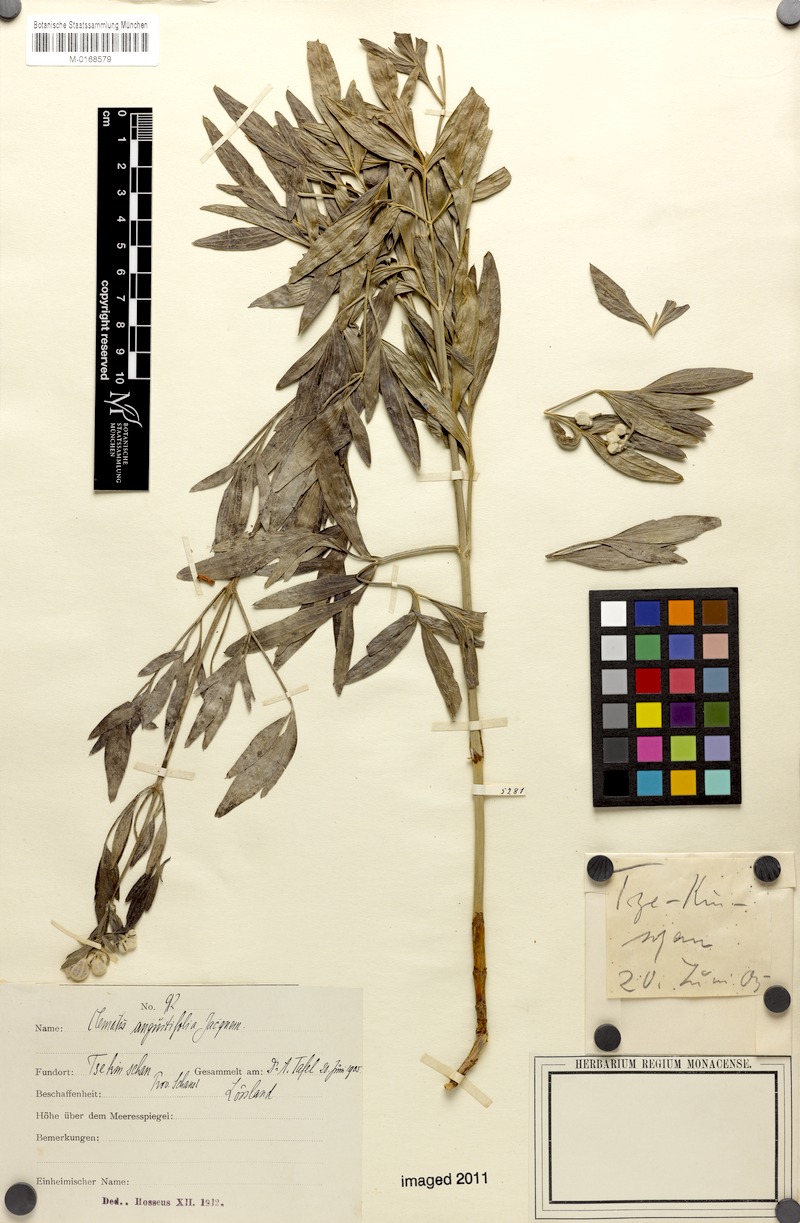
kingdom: Plantae
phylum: Tracheophyta
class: Magnoliopsida
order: Ranunculales
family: Ranunculaceae
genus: Clematis
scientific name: Clematis hexapetala
